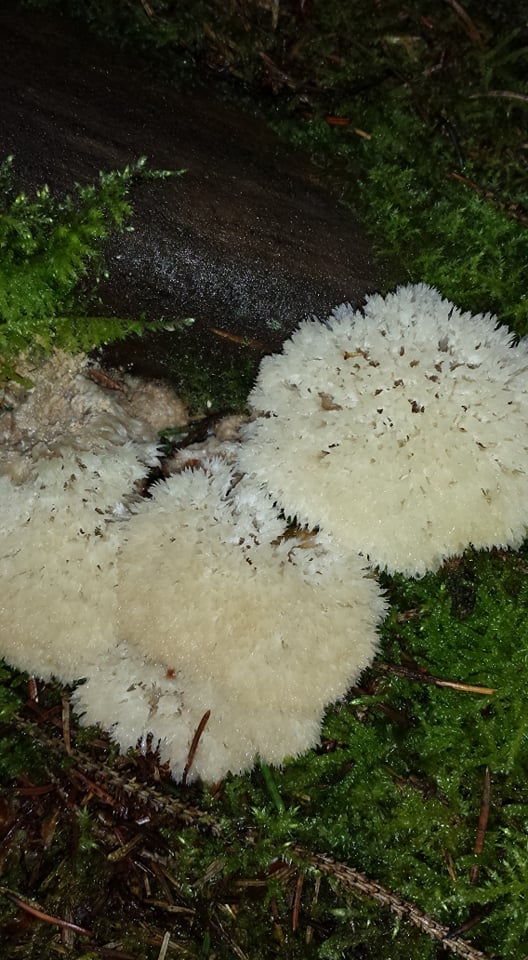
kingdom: Fungi
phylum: Basidiomycota
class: Agaricomycetes
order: Polyporales
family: Dacryobolaceae
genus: Postia
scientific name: Postia ptychogaster
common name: støvende kødporesvamp
